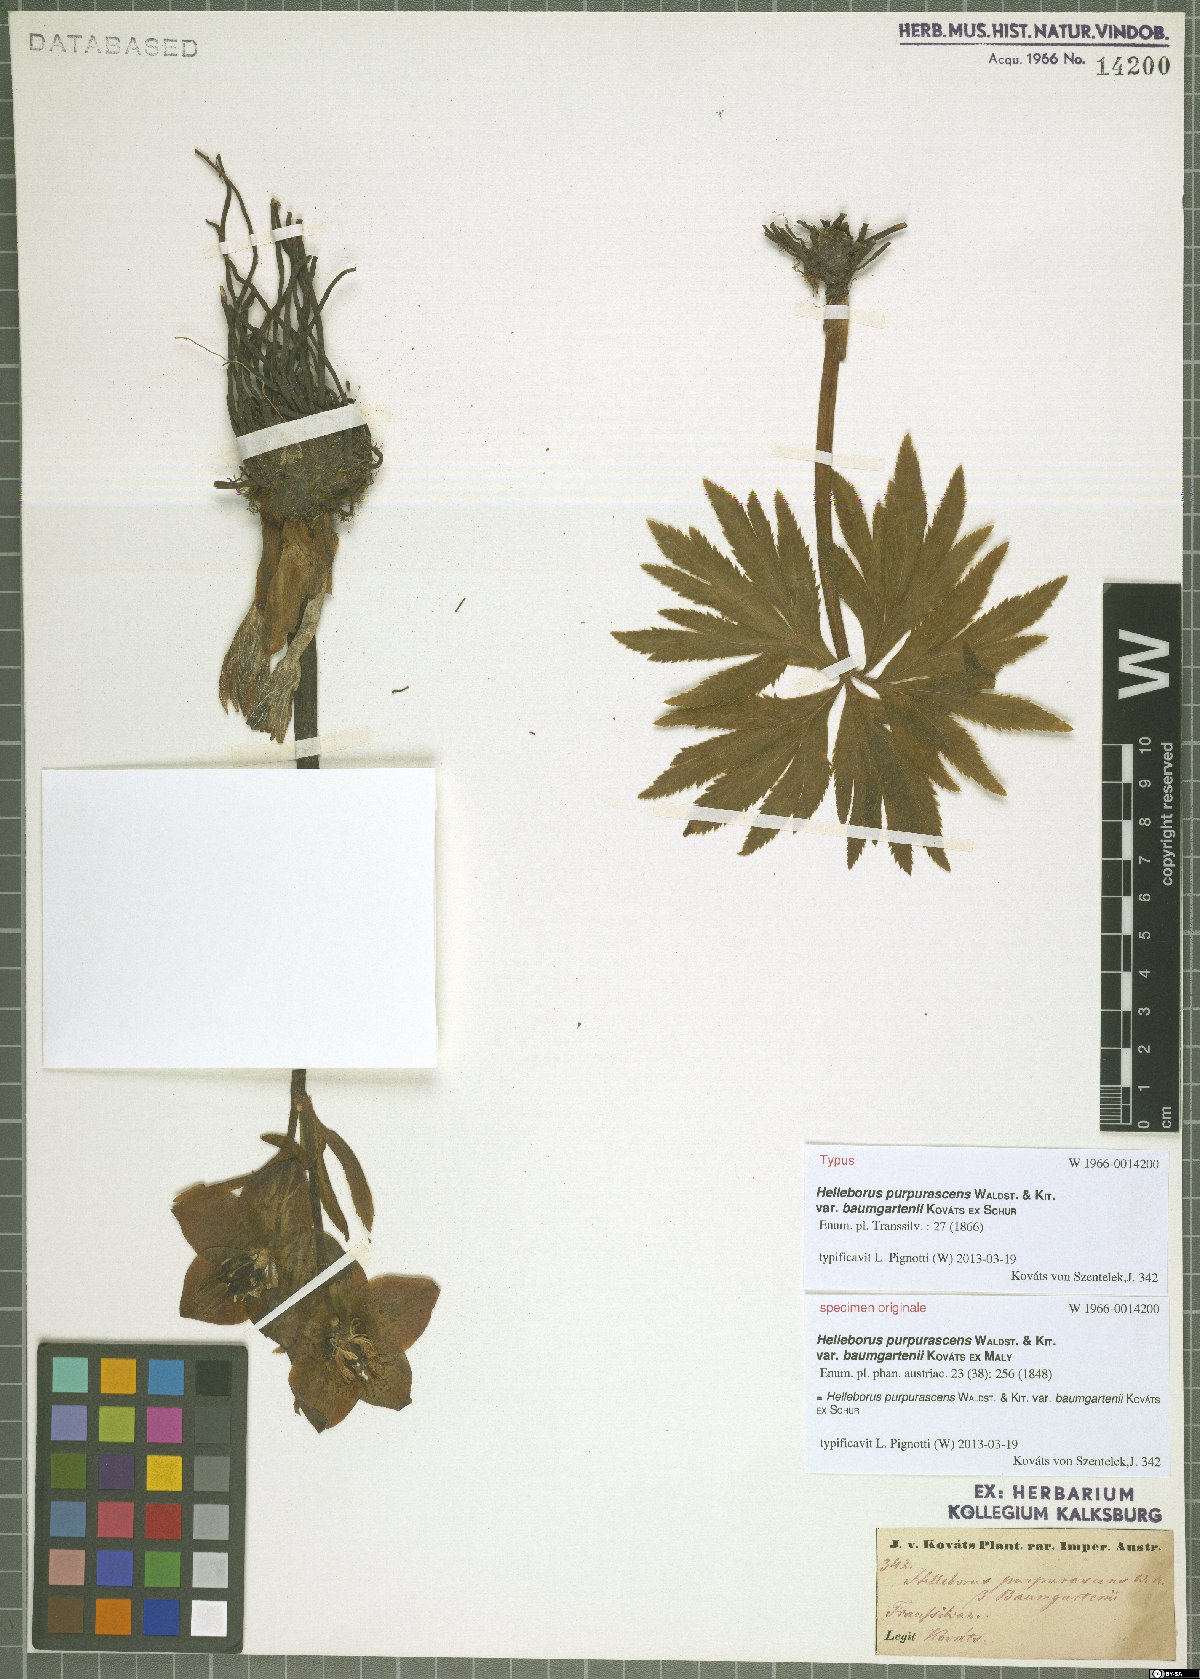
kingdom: Plantae
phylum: Tracheophyta
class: Magnoliopsida
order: Ranunculales
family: Ranunculaceae
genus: Helleborus
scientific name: Helleborus purpurascens
